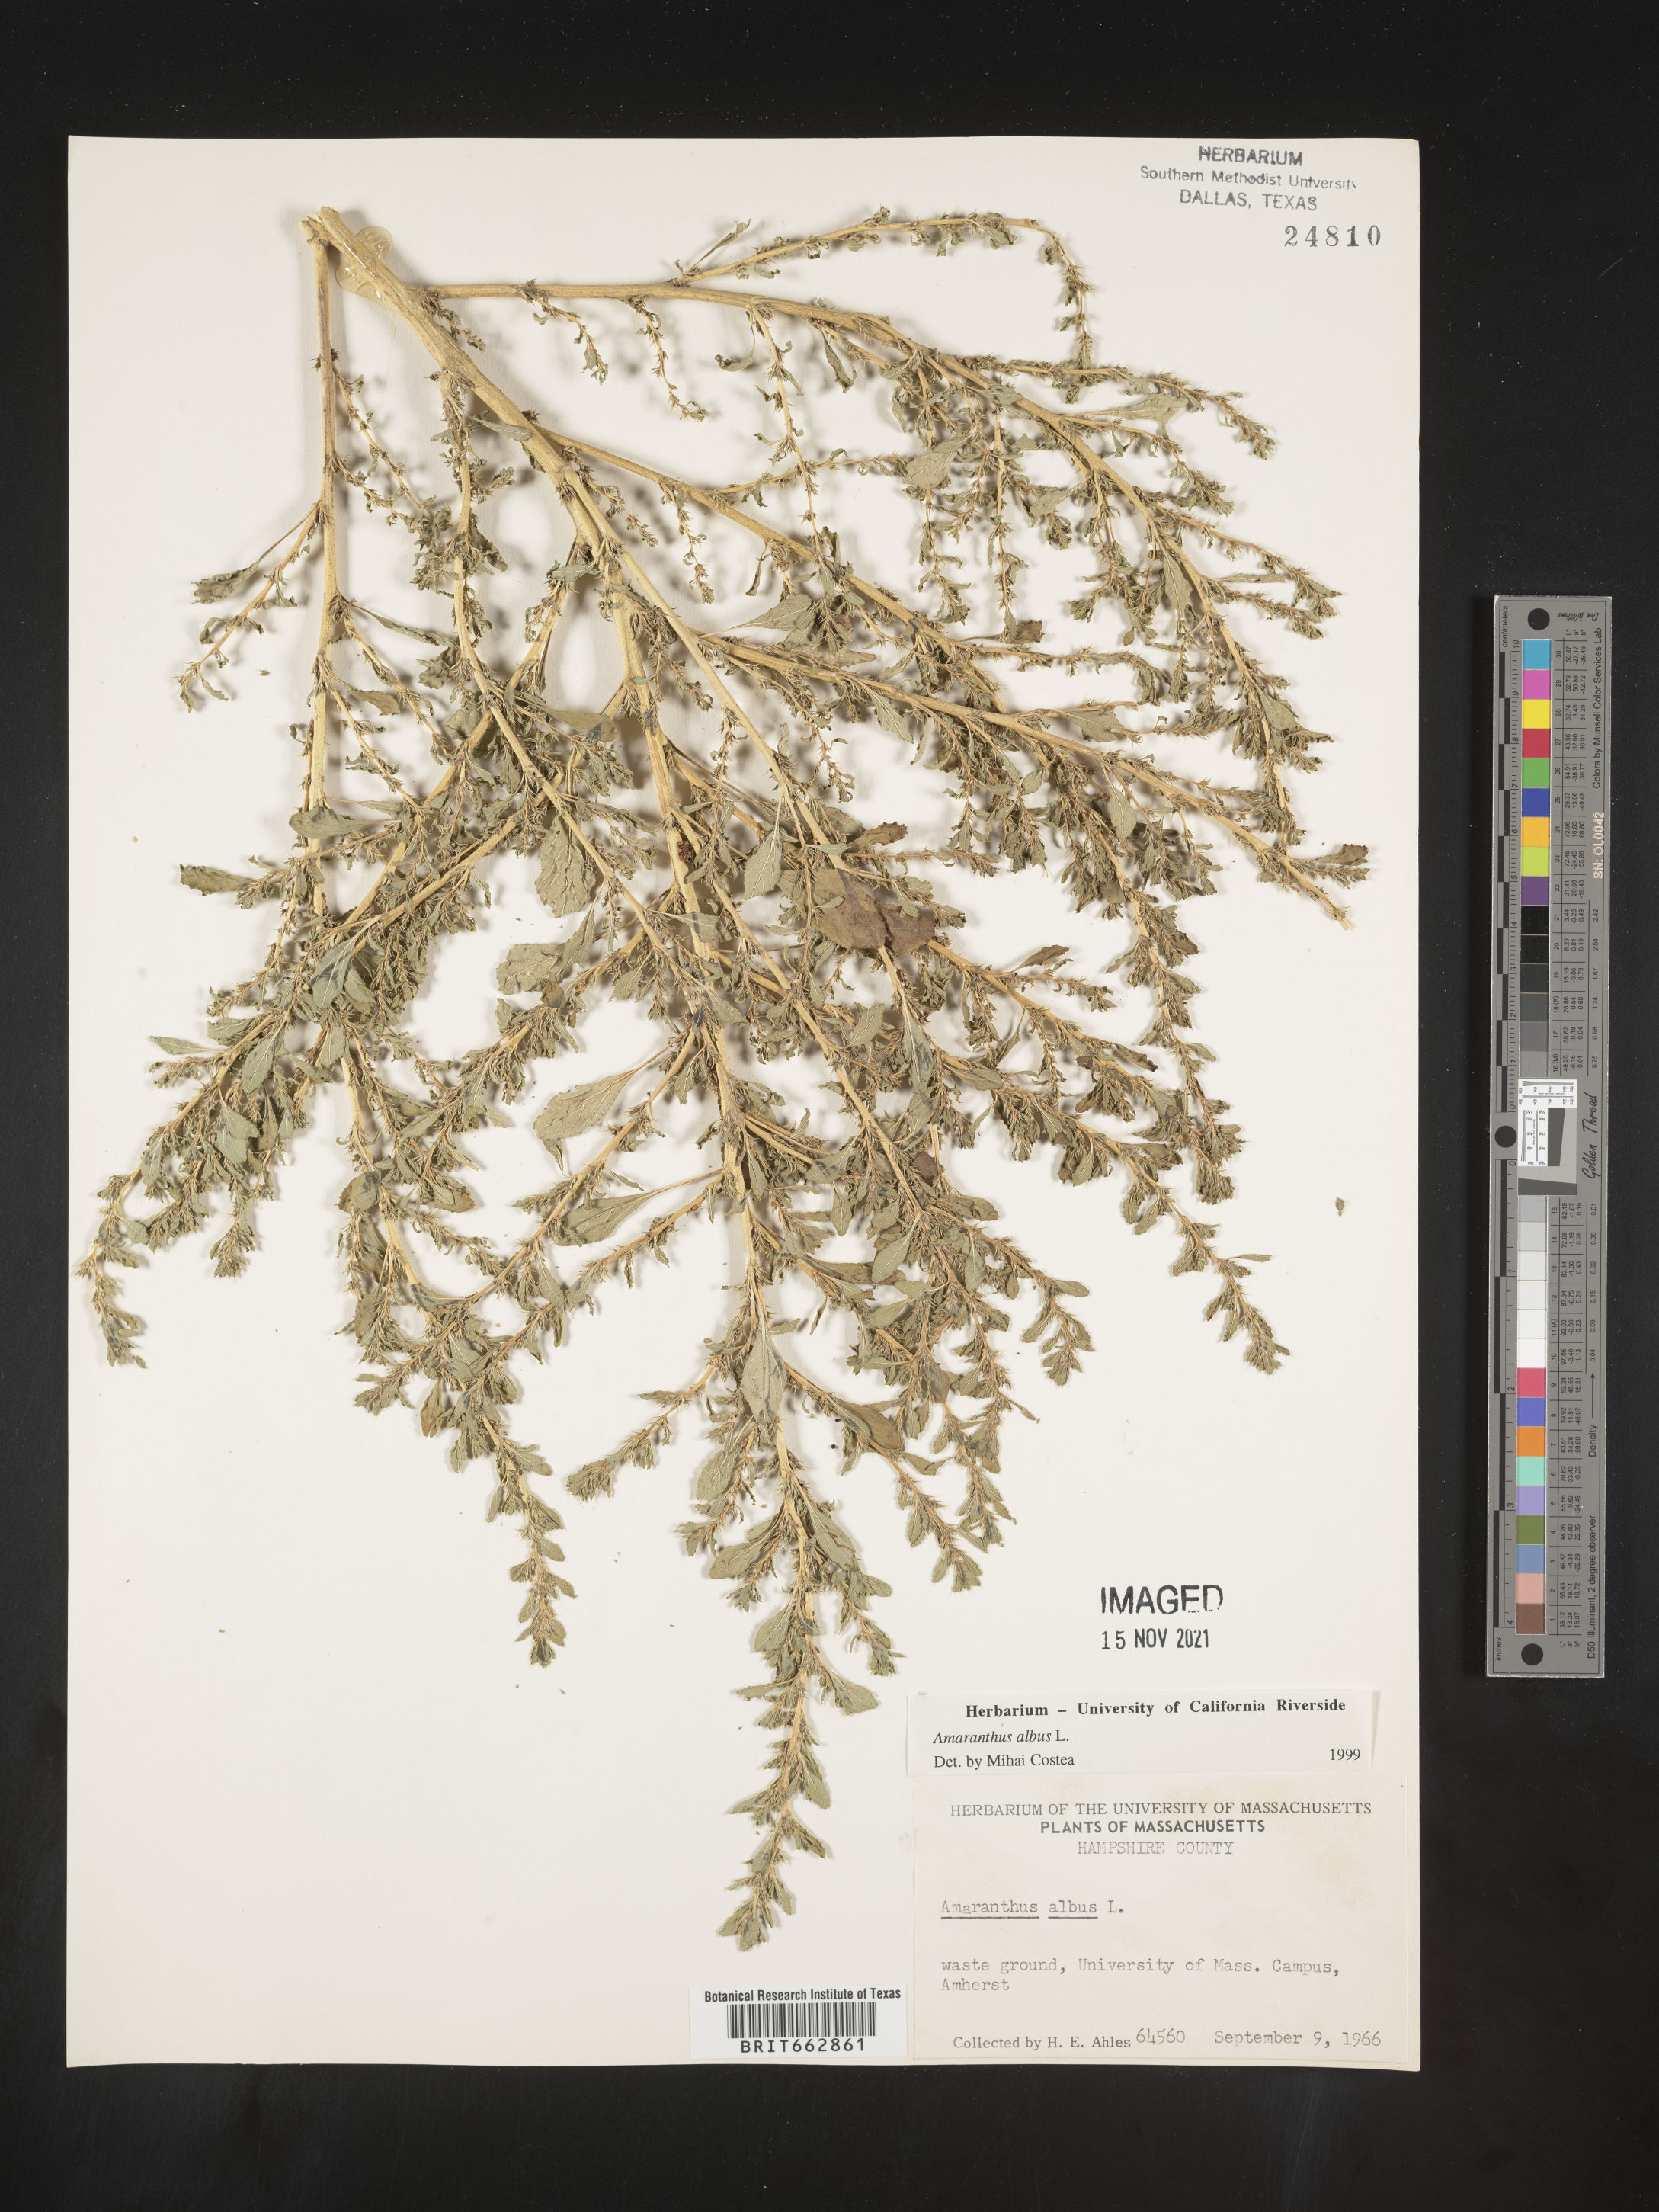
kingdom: Plantae
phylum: Tracheophyta
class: Magnoliopsida
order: Caryophyllales
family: Amaranthaceae
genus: Amaranthus
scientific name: Amaranthus albus
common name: White pigweed
